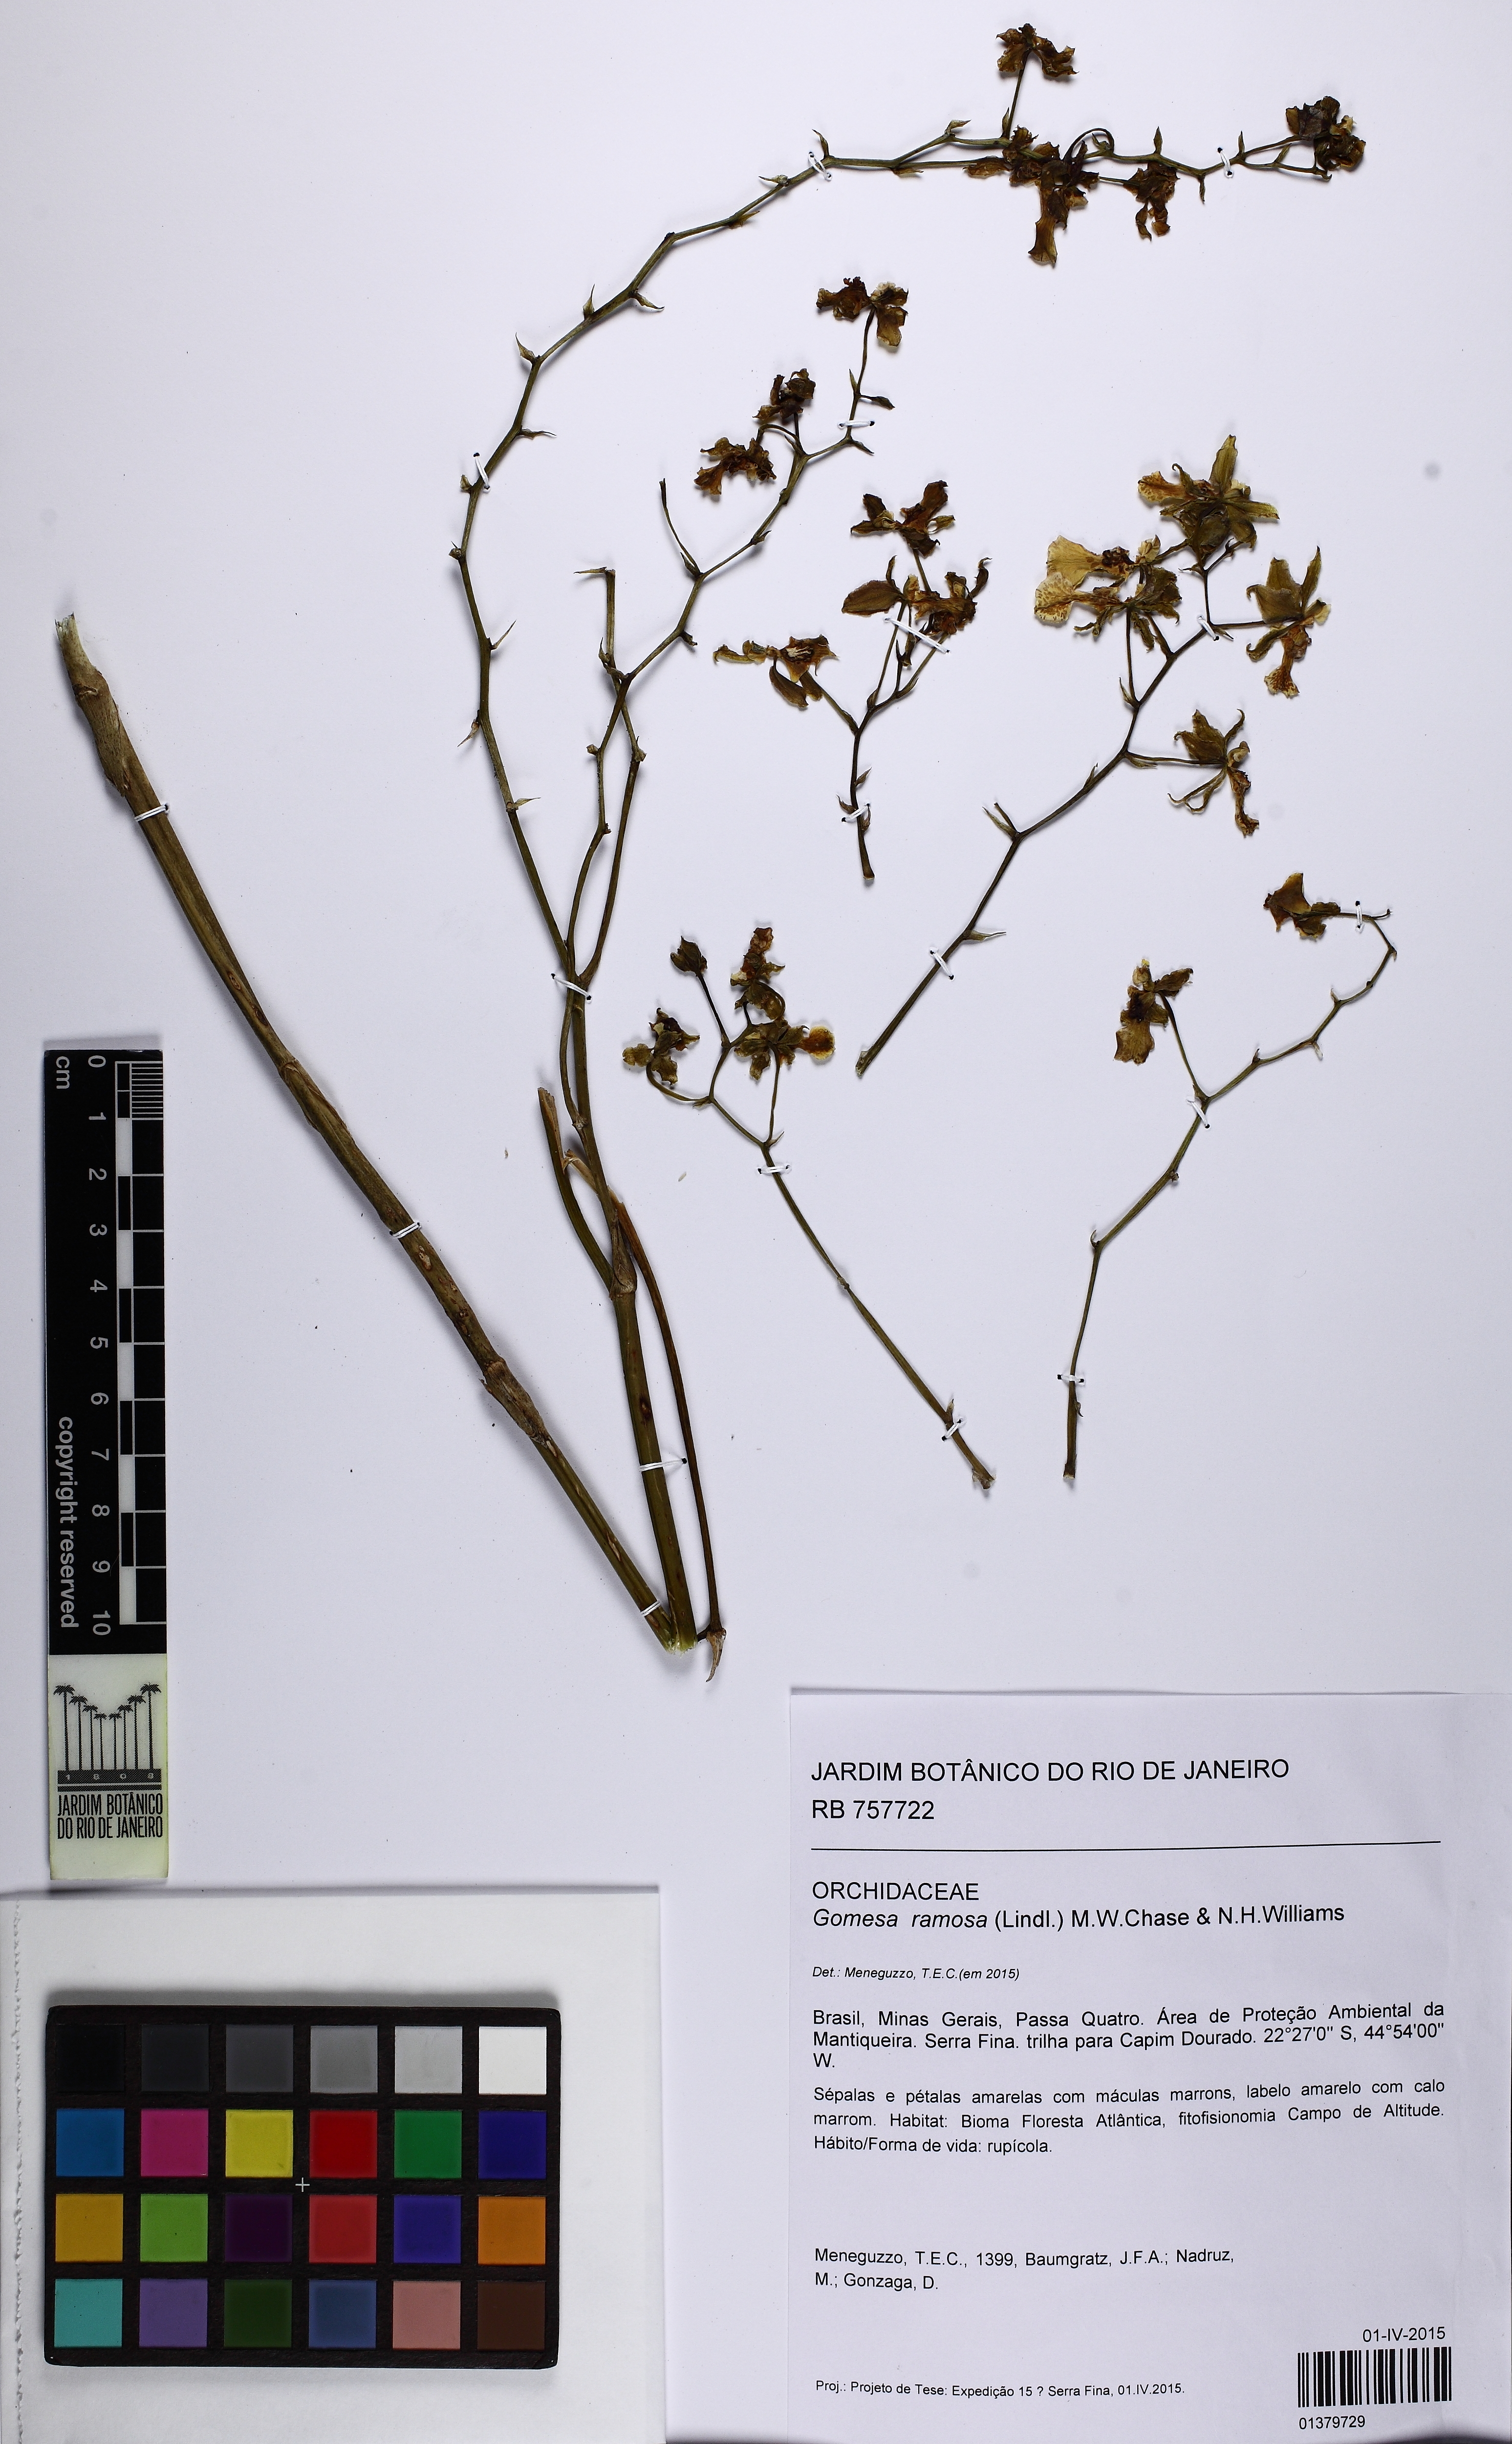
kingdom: Plantae
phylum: Tracheophyta
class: Liliopsida
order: Asparagales
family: Orchidaceae
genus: Gomesa
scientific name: Gomesa ramosa
